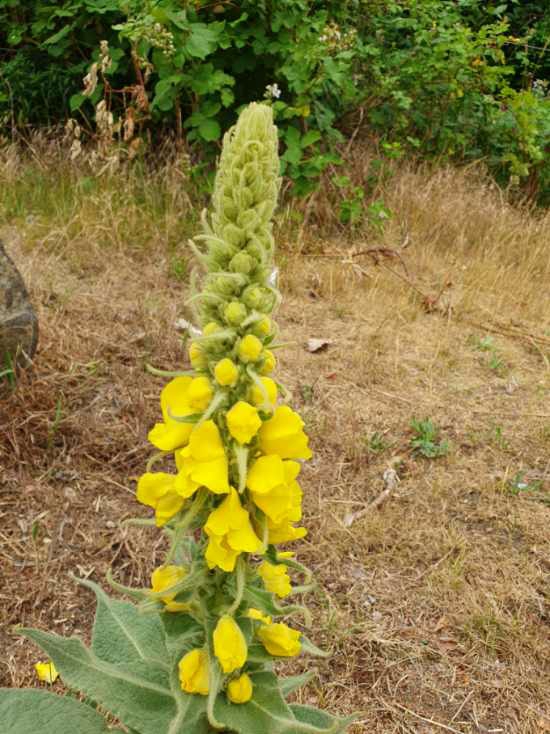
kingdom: Plantae
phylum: Tracheophyta
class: Magnoliopsida
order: Lamiales
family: Scrophulariaceae
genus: Verbascum
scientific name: Verbascum densiflorum
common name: Uldbladet kongelys
